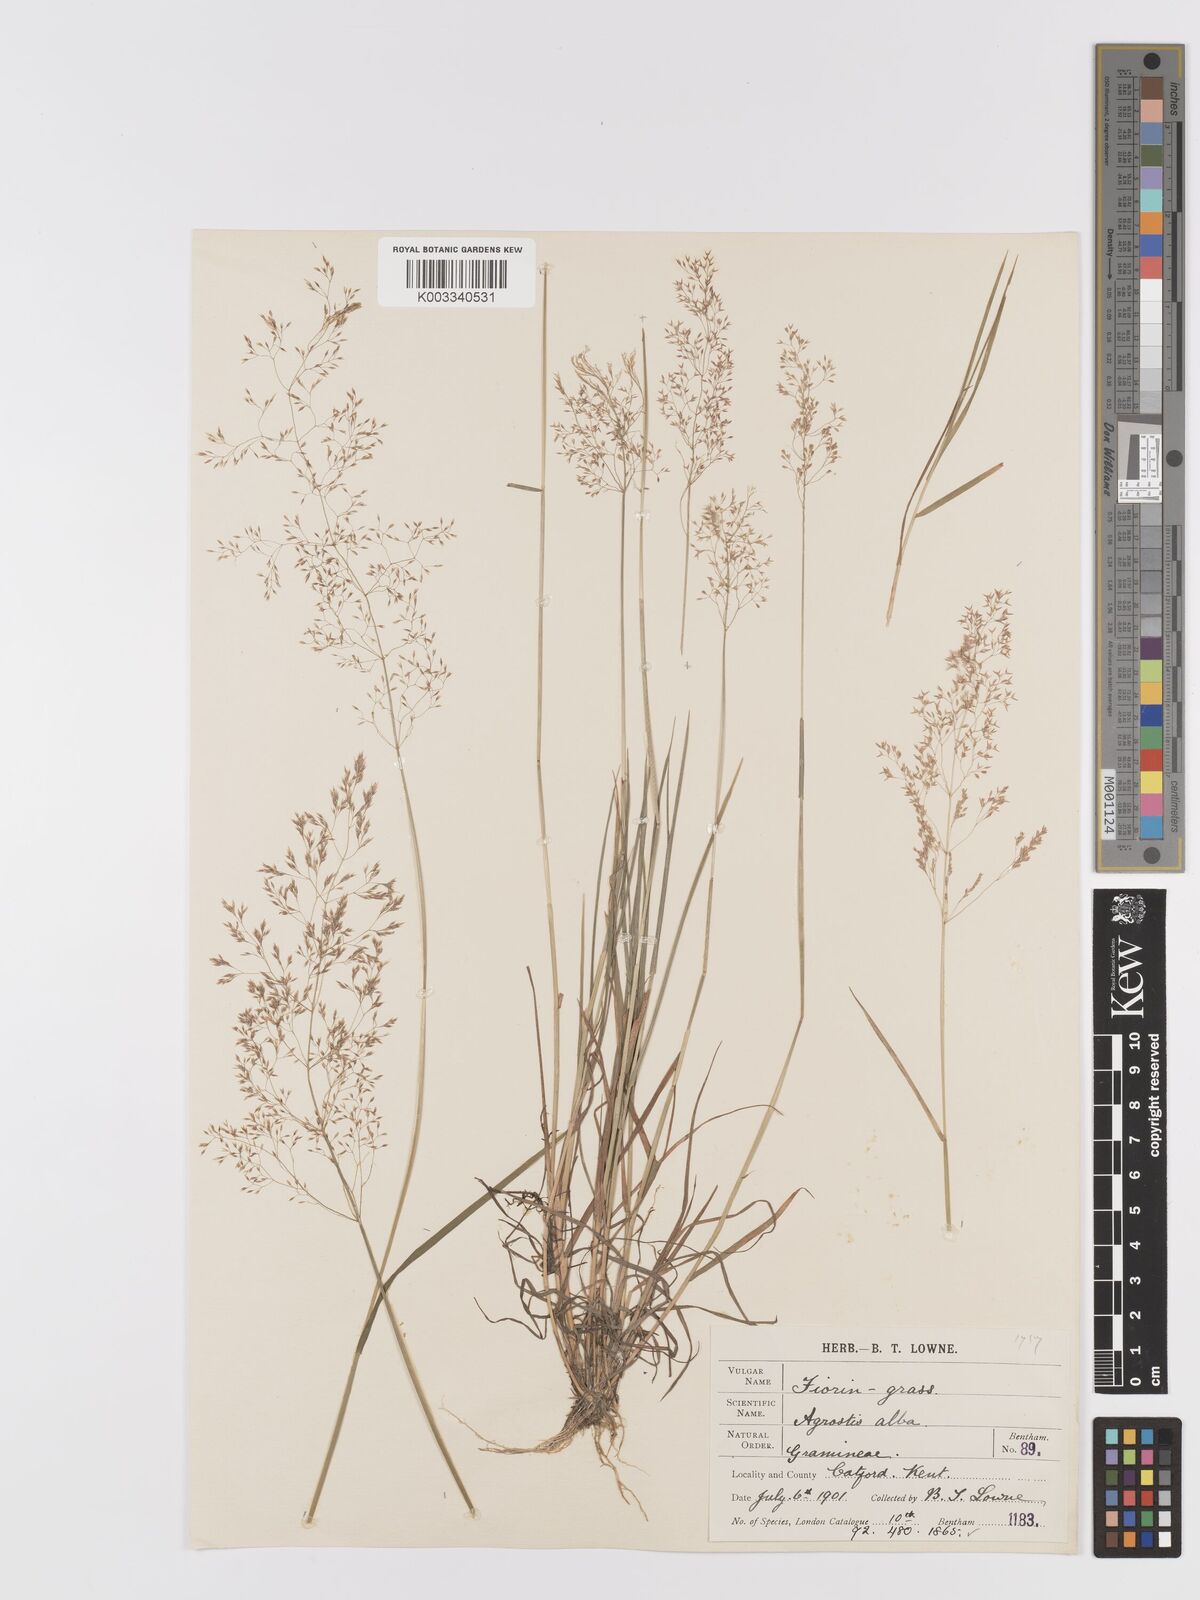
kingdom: Plantae
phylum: Tracheophyta
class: Liliopsida
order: Poales
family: Poaceae
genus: Agrostis
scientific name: Agrostis capillaris
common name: Colonial bentgrass
